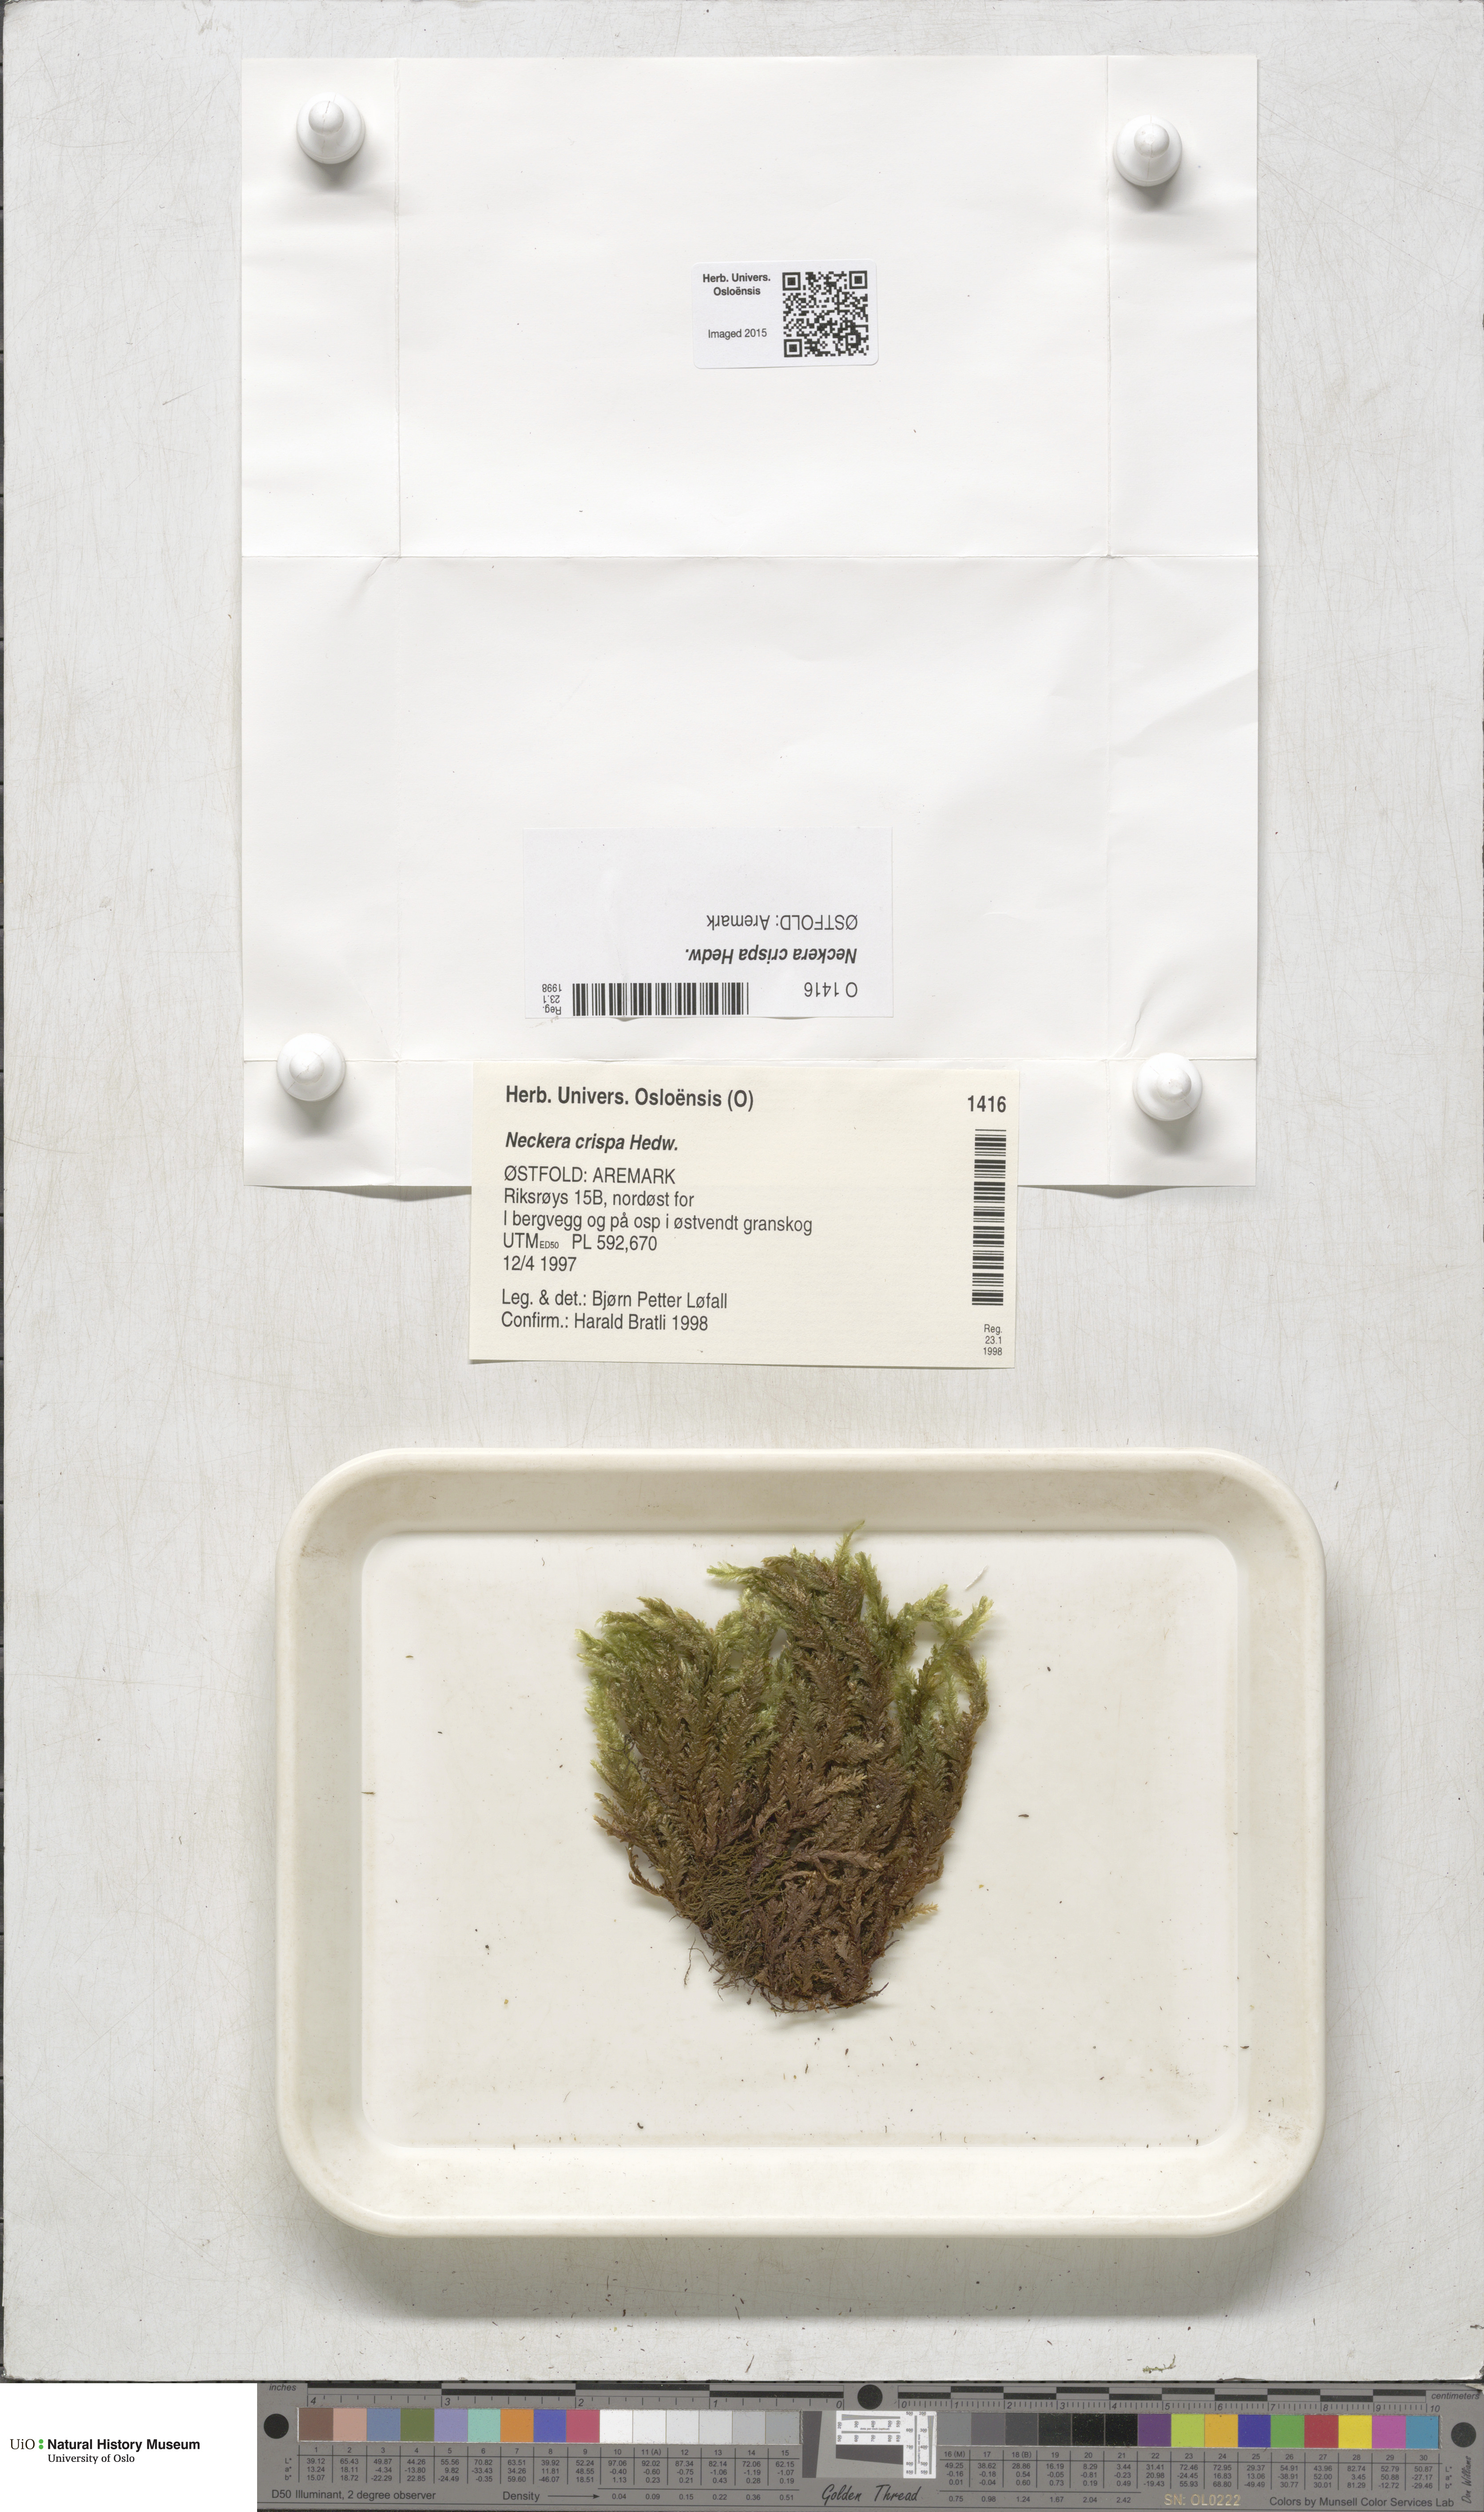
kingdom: Plantae
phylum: Bryophyta
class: Bryopsida
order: Hypnales
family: Neckeraceae
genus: Exsertotheca
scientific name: Exsertotheca crispa
